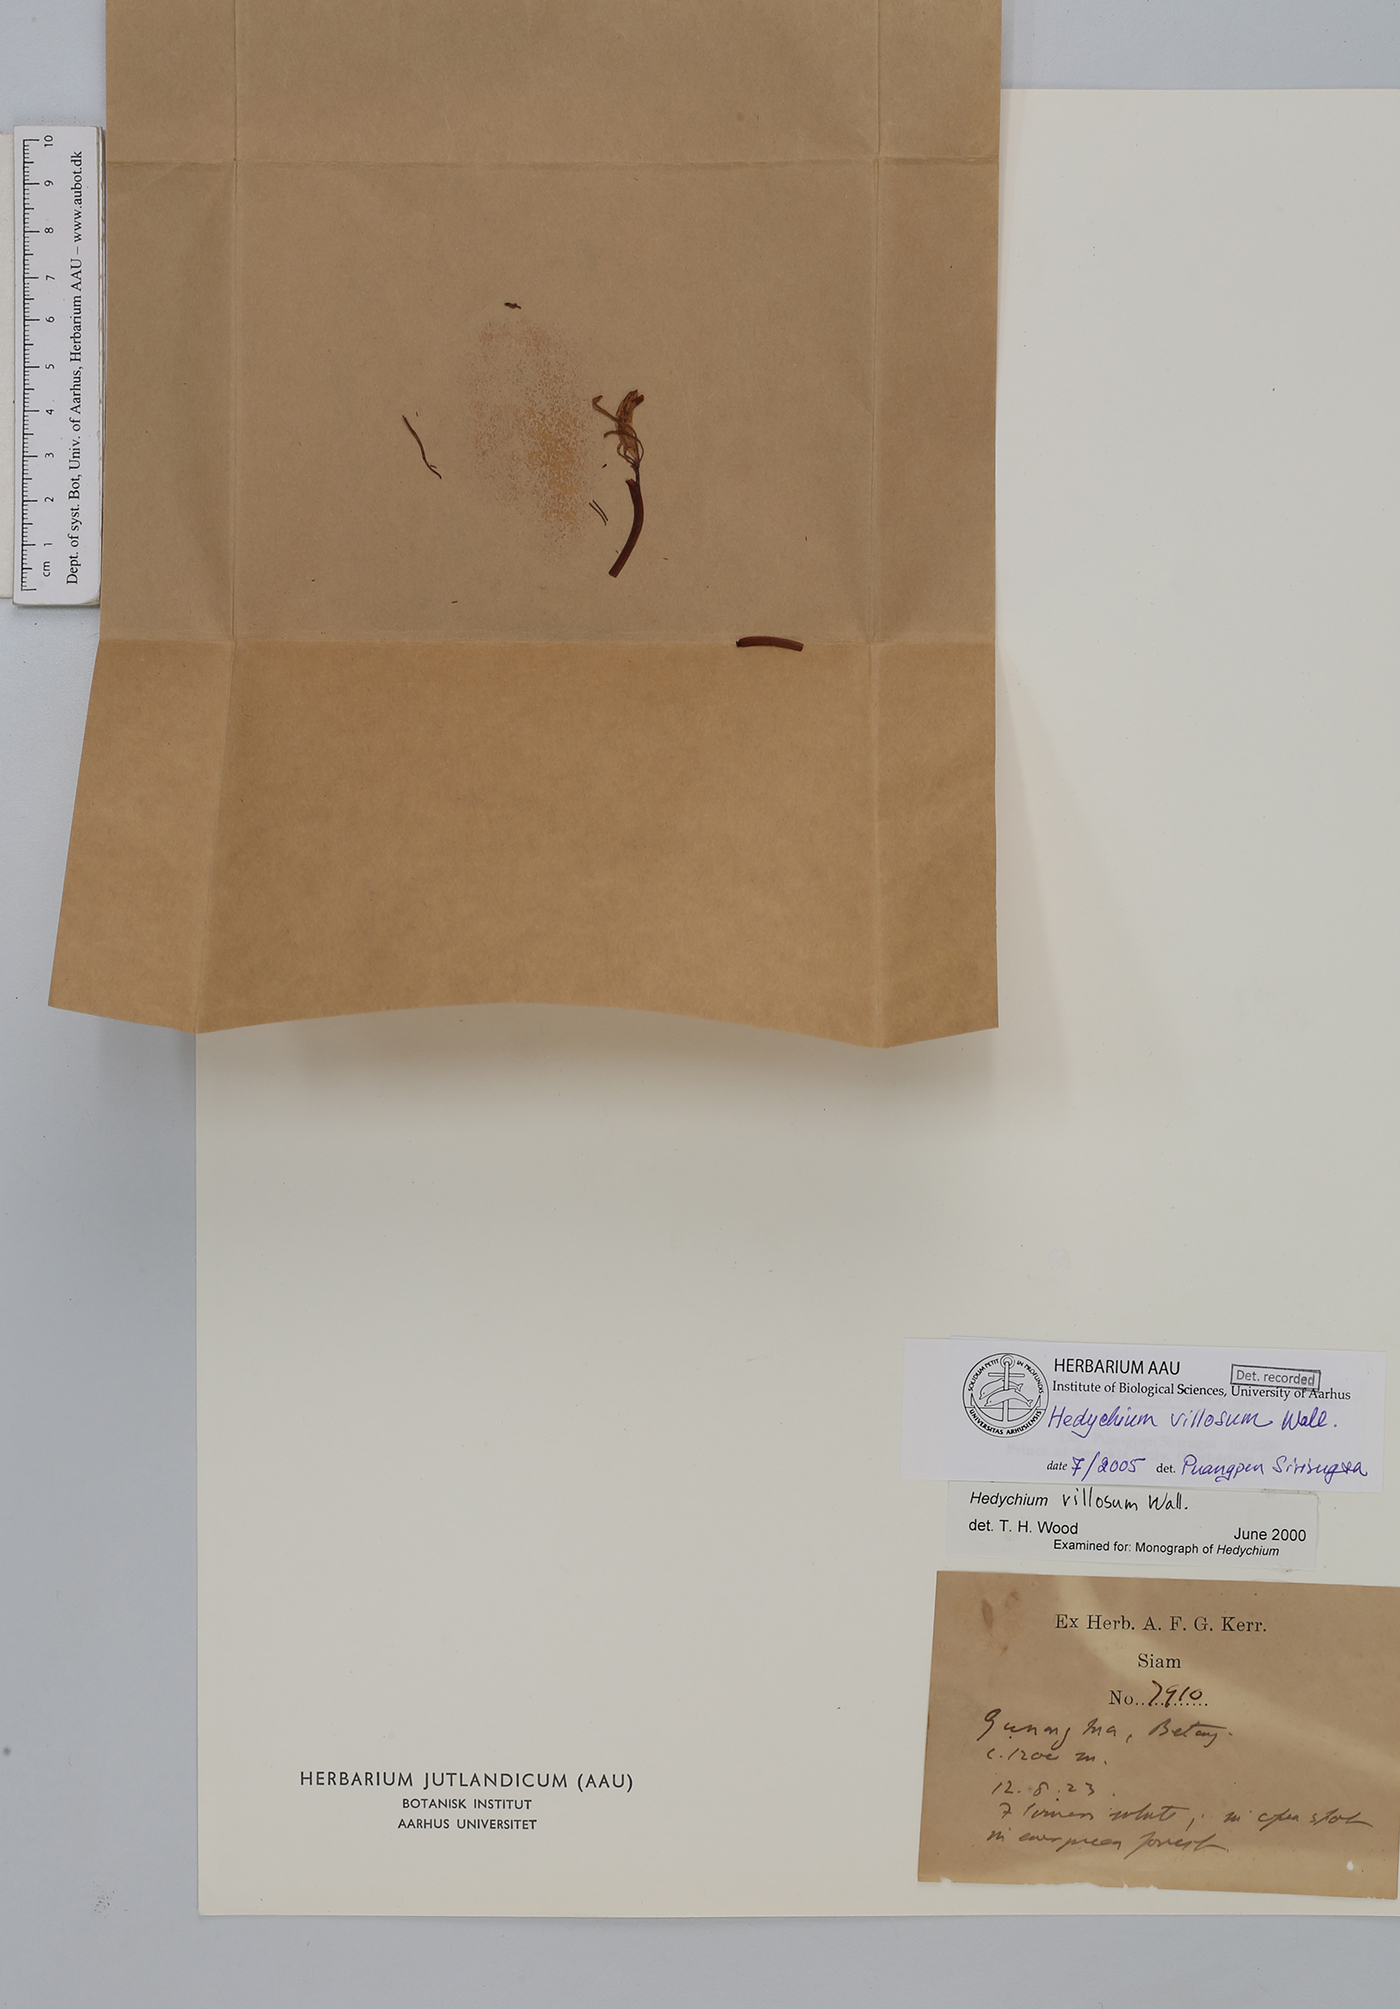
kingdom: Plantae
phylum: Tracheophyta
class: Liliopsida
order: Zingiberales
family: Zingiberaceae
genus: Hedychium
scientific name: Hedychium villosum
